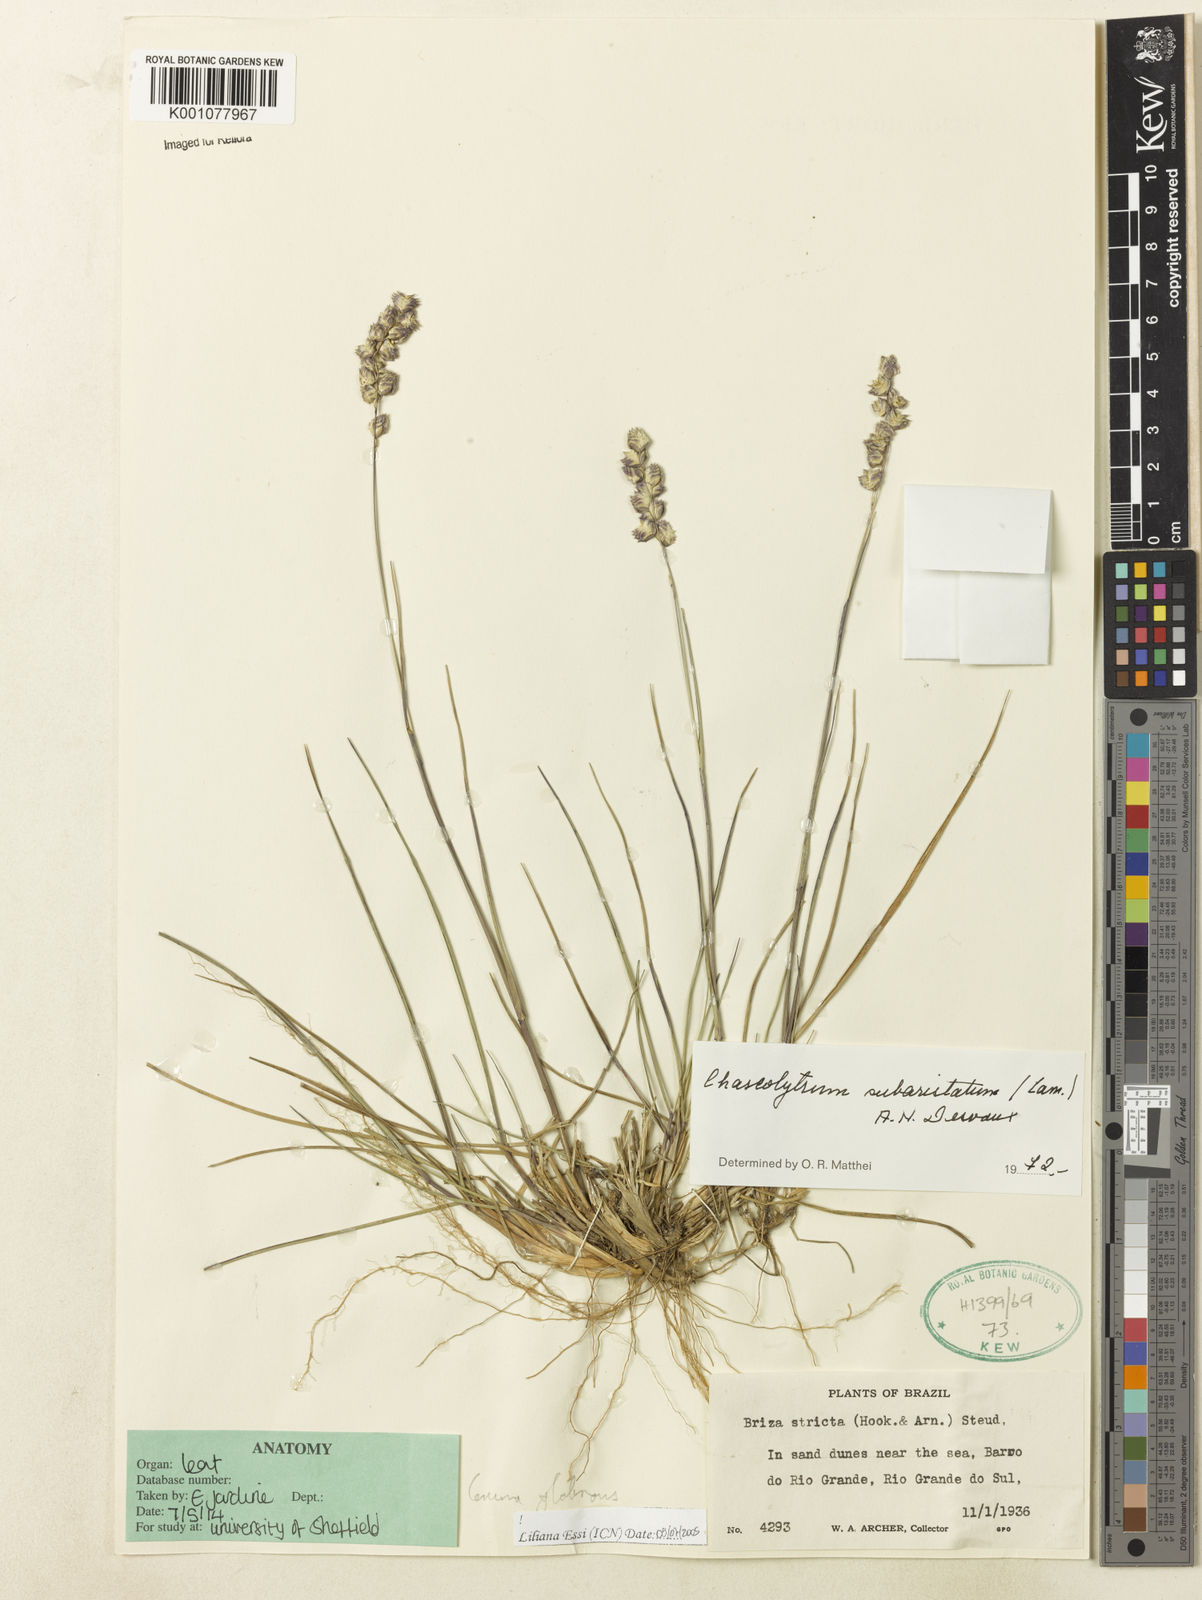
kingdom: Plantae
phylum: Tracheophyta
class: Liliopsida
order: Poales
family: Poaceae
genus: Briza
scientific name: Briza
